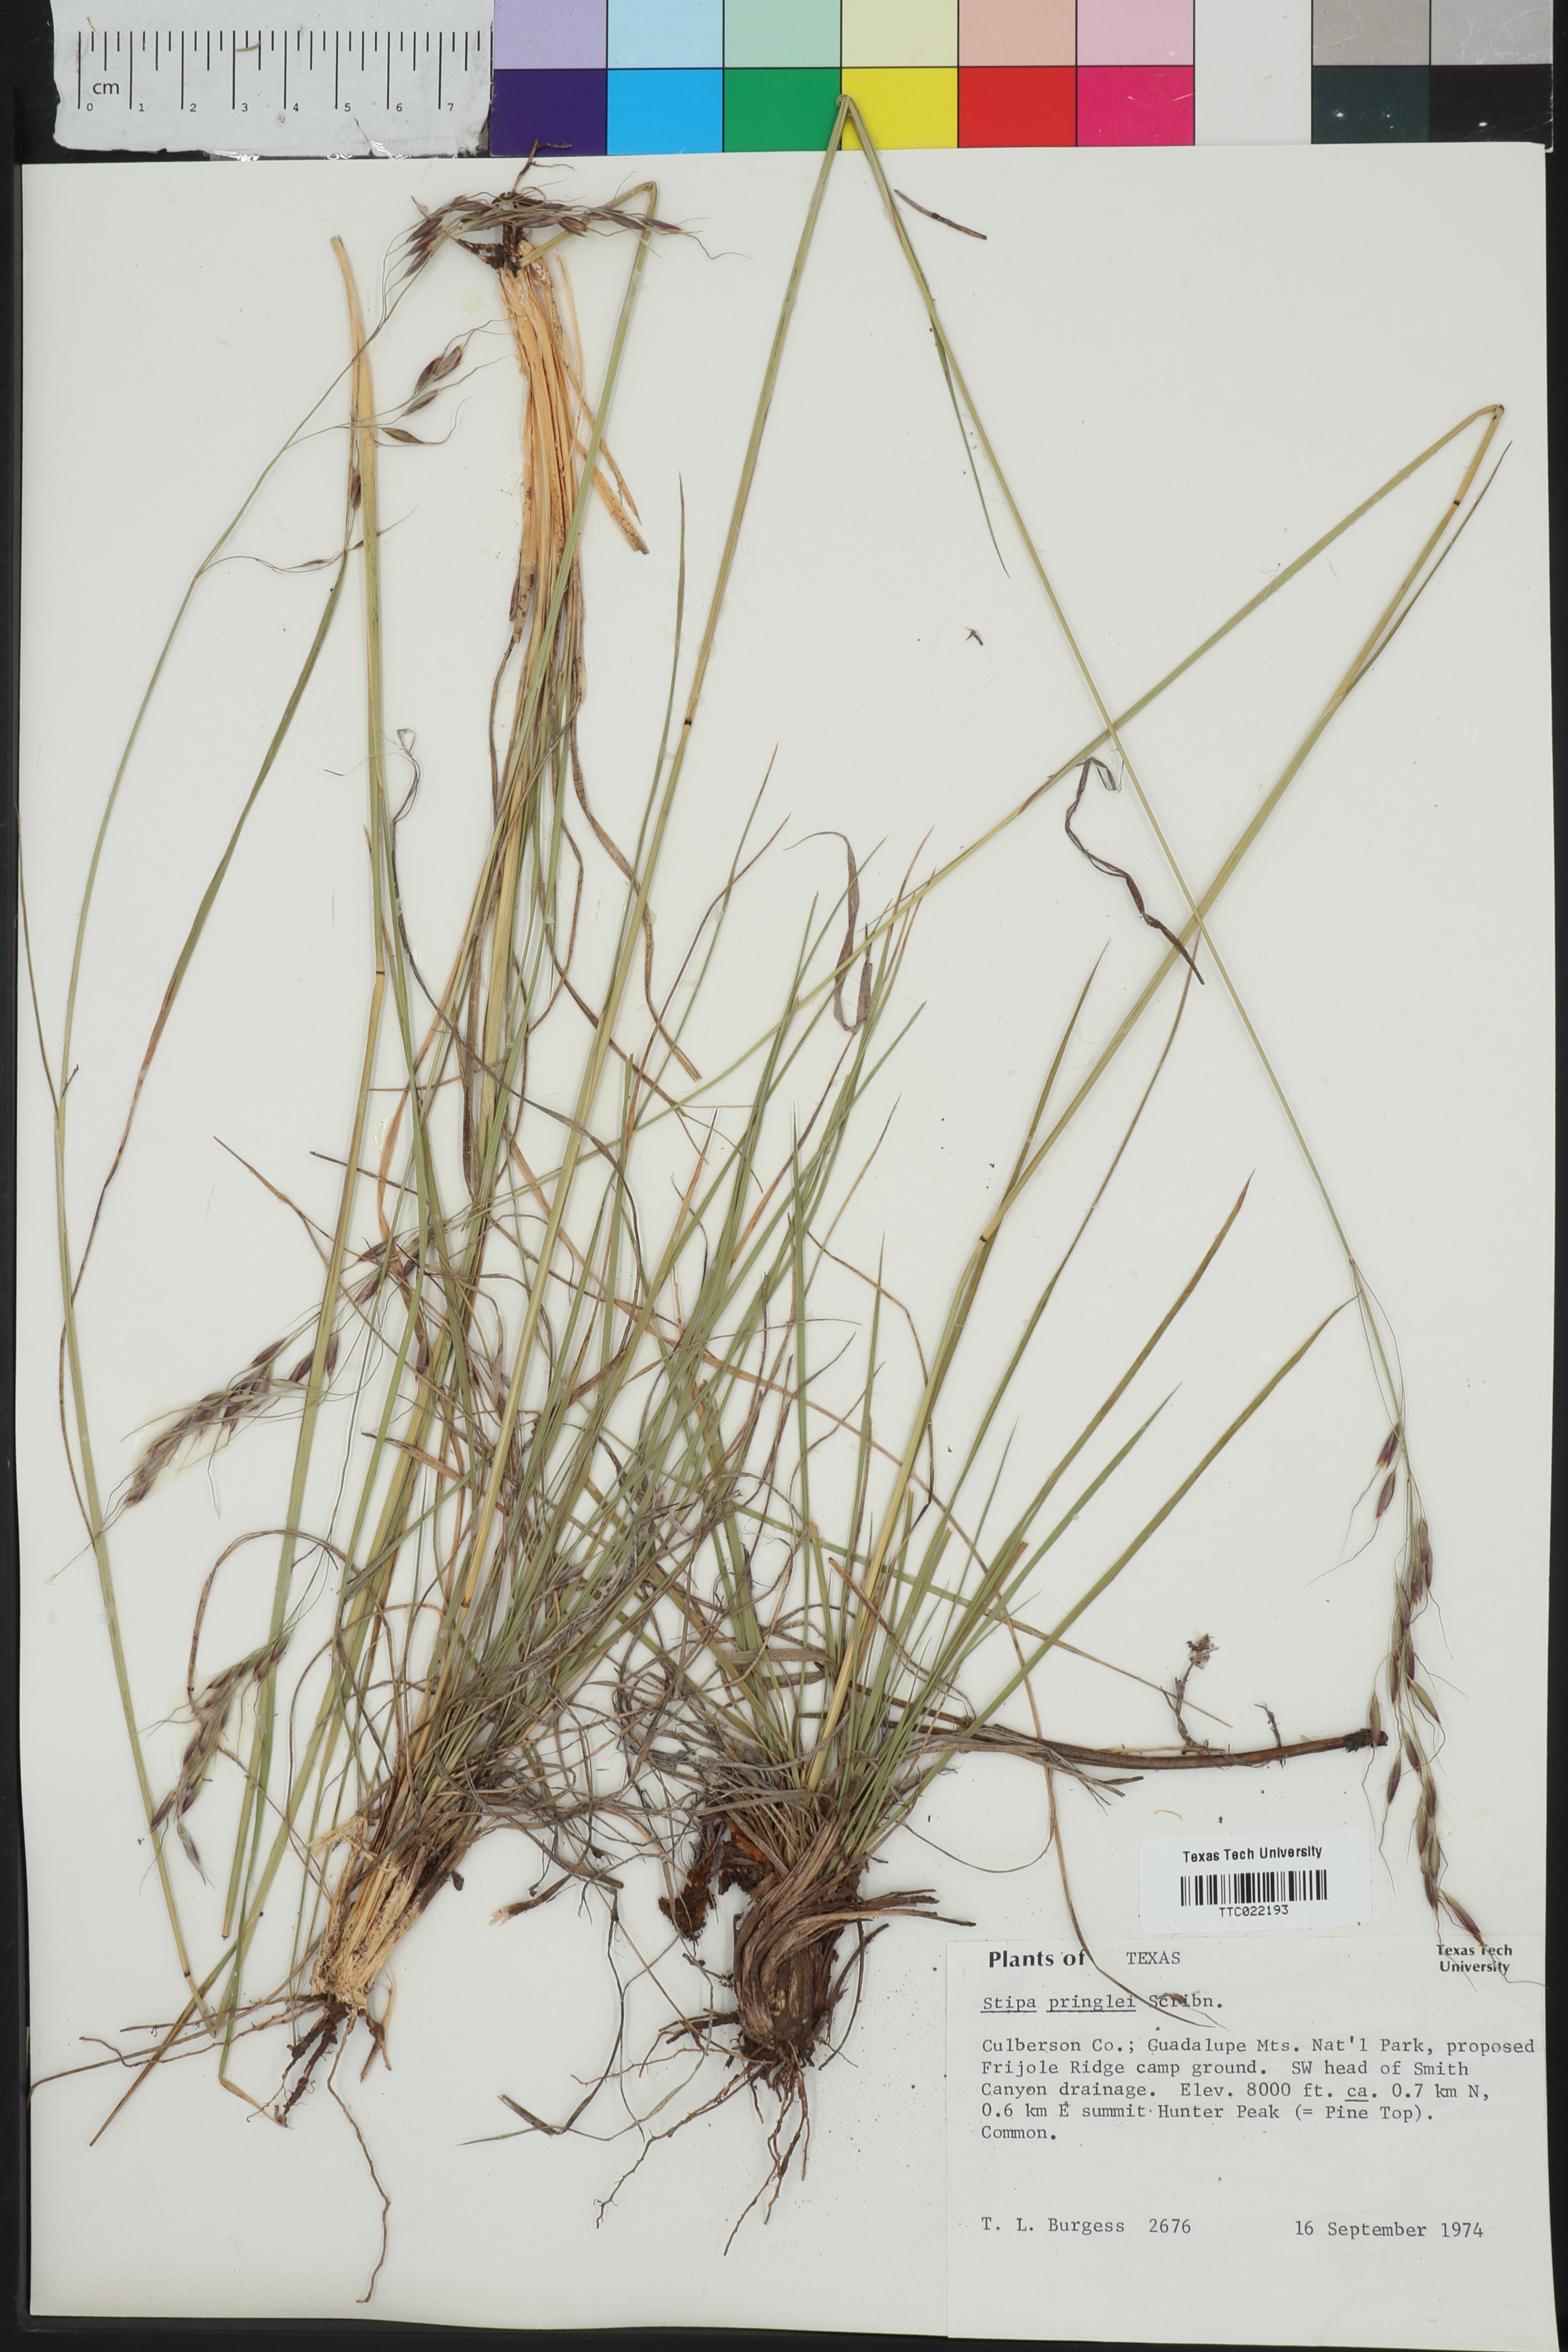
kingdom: Plantae
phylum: Tracheophyta
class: Liliopsida
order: Poales
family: Poaceae
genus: Piptochaetium
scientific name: Piptochaetium pringlei
